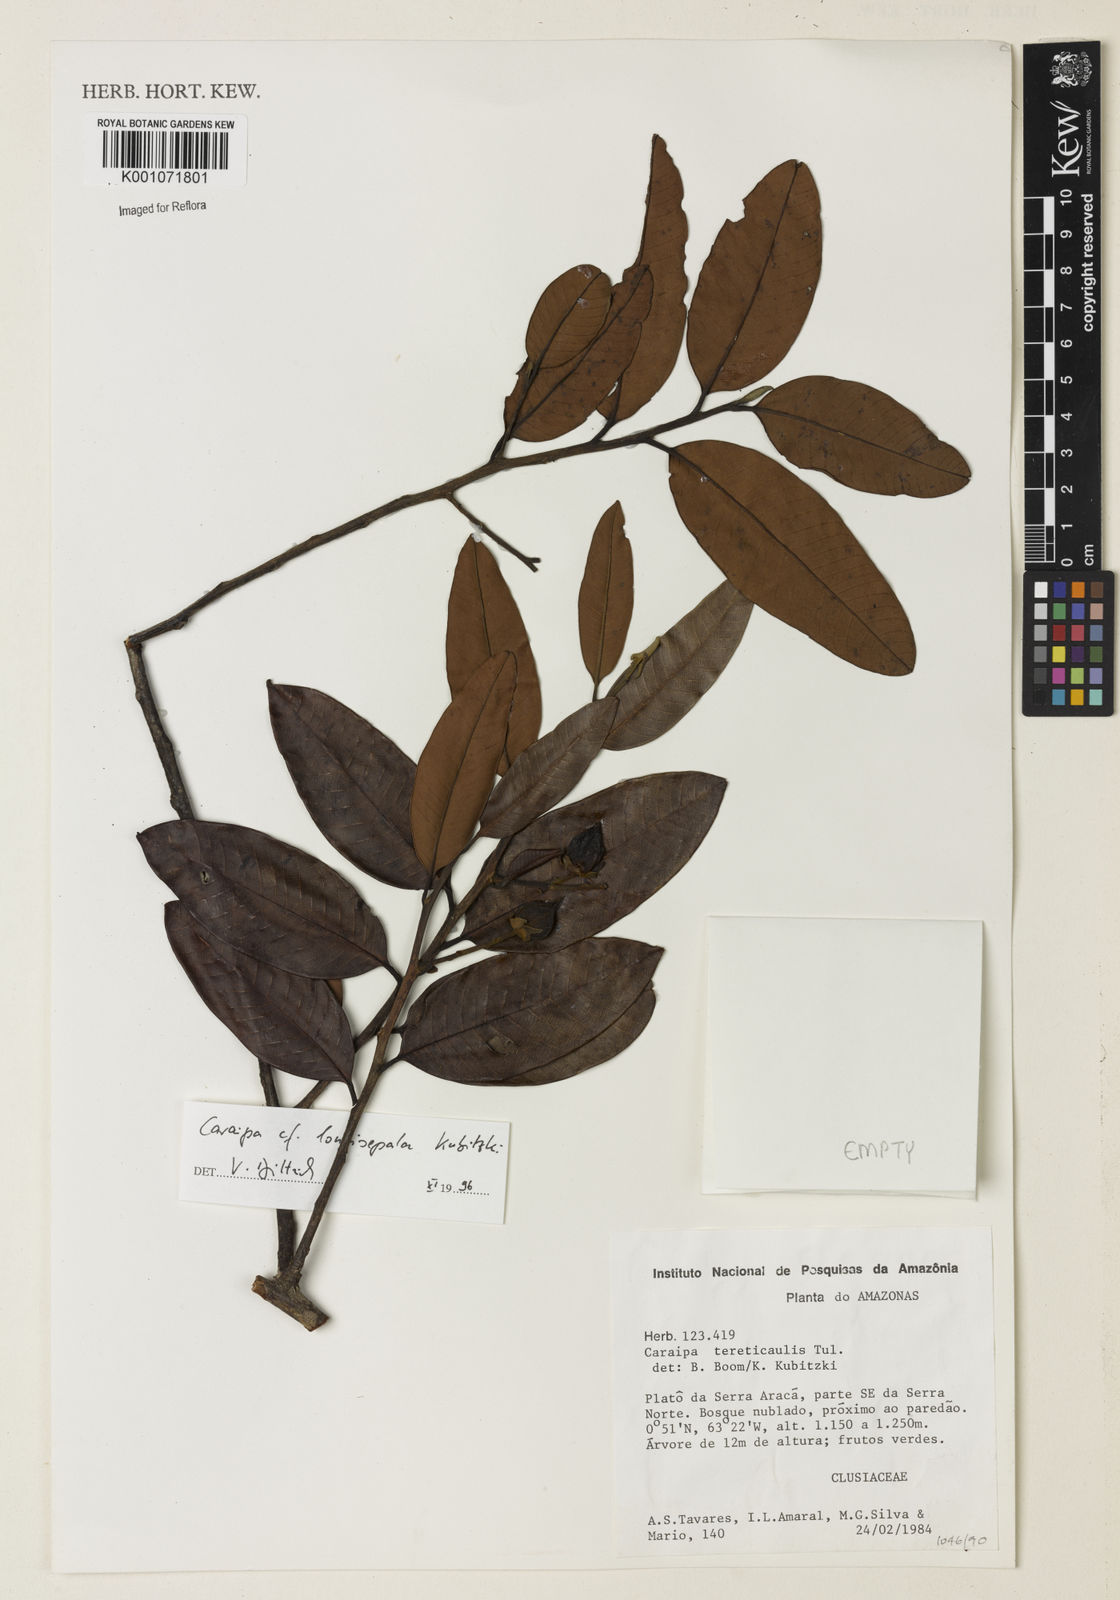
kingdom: Plantae
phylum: Tracheophyta
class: Magnoliopsida
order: Malpighiales
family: Calophyllaceae
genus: Caraipa
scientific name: Caraipa longisepala
